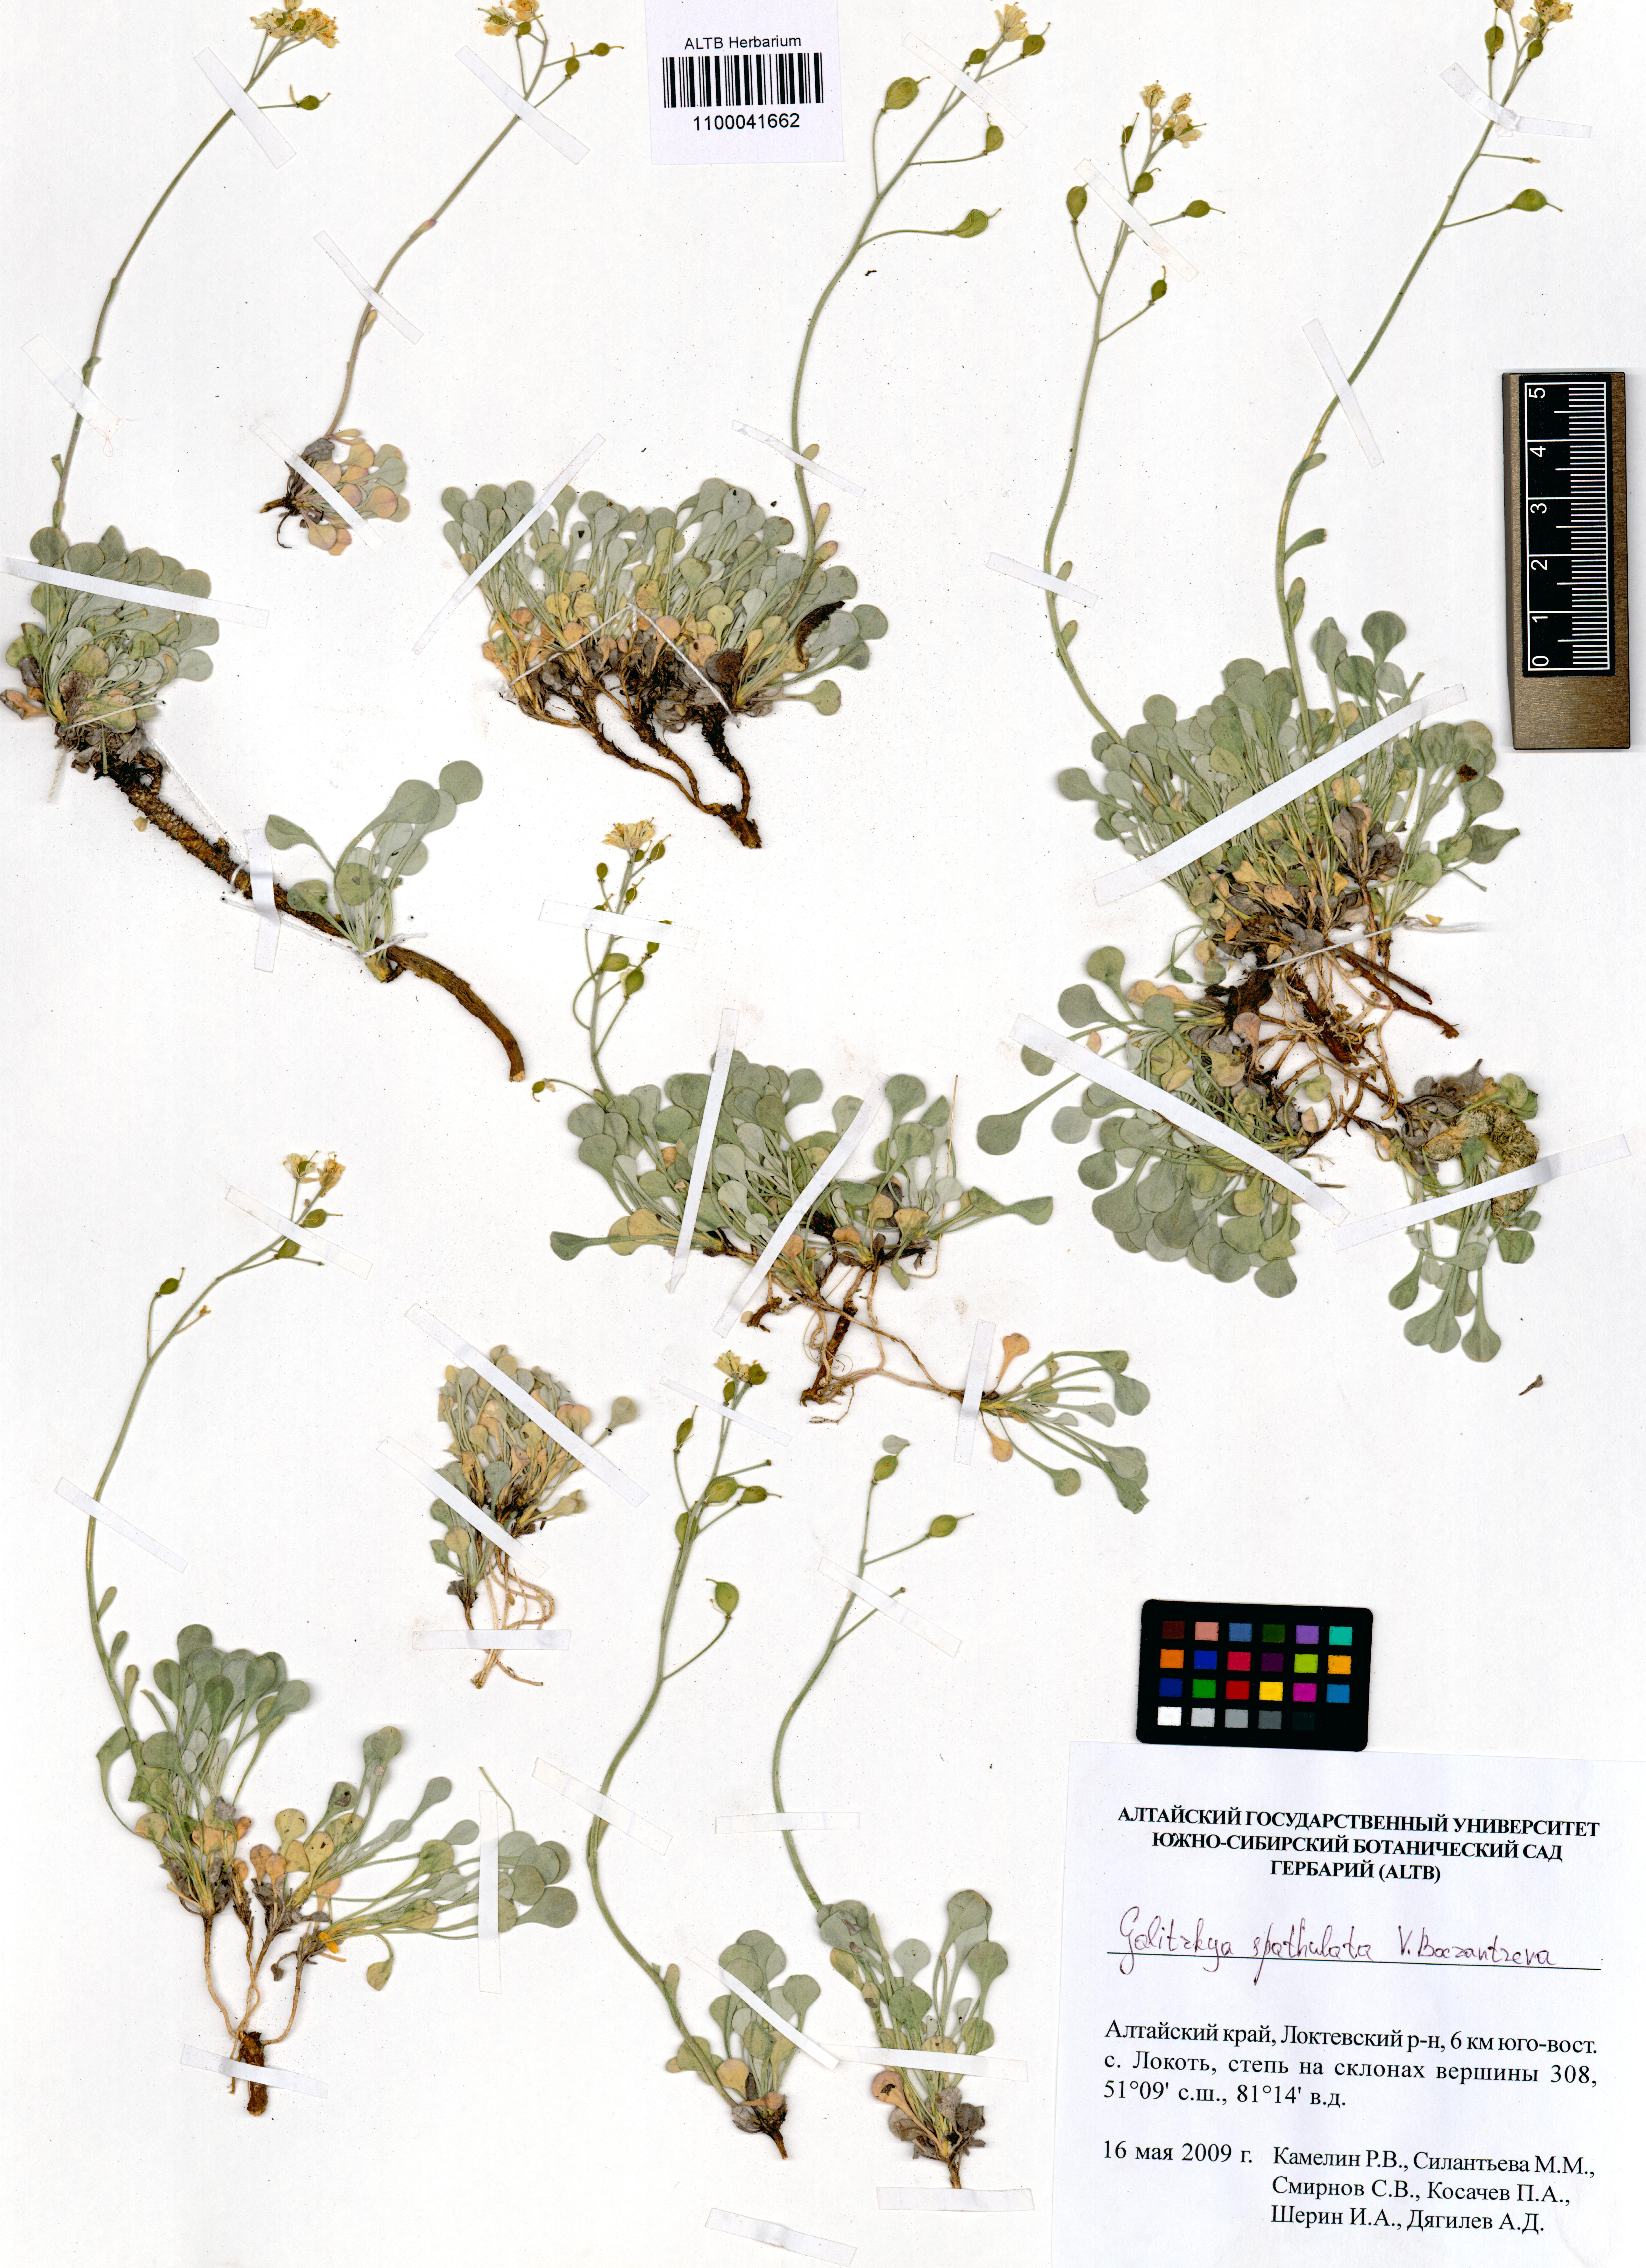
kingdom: Plantae
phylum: Tracheophyta
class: Magnoliopsida
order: Brassicales
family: Brassicaceae
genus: Galitzkya
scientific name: Galitzkya spathulata
